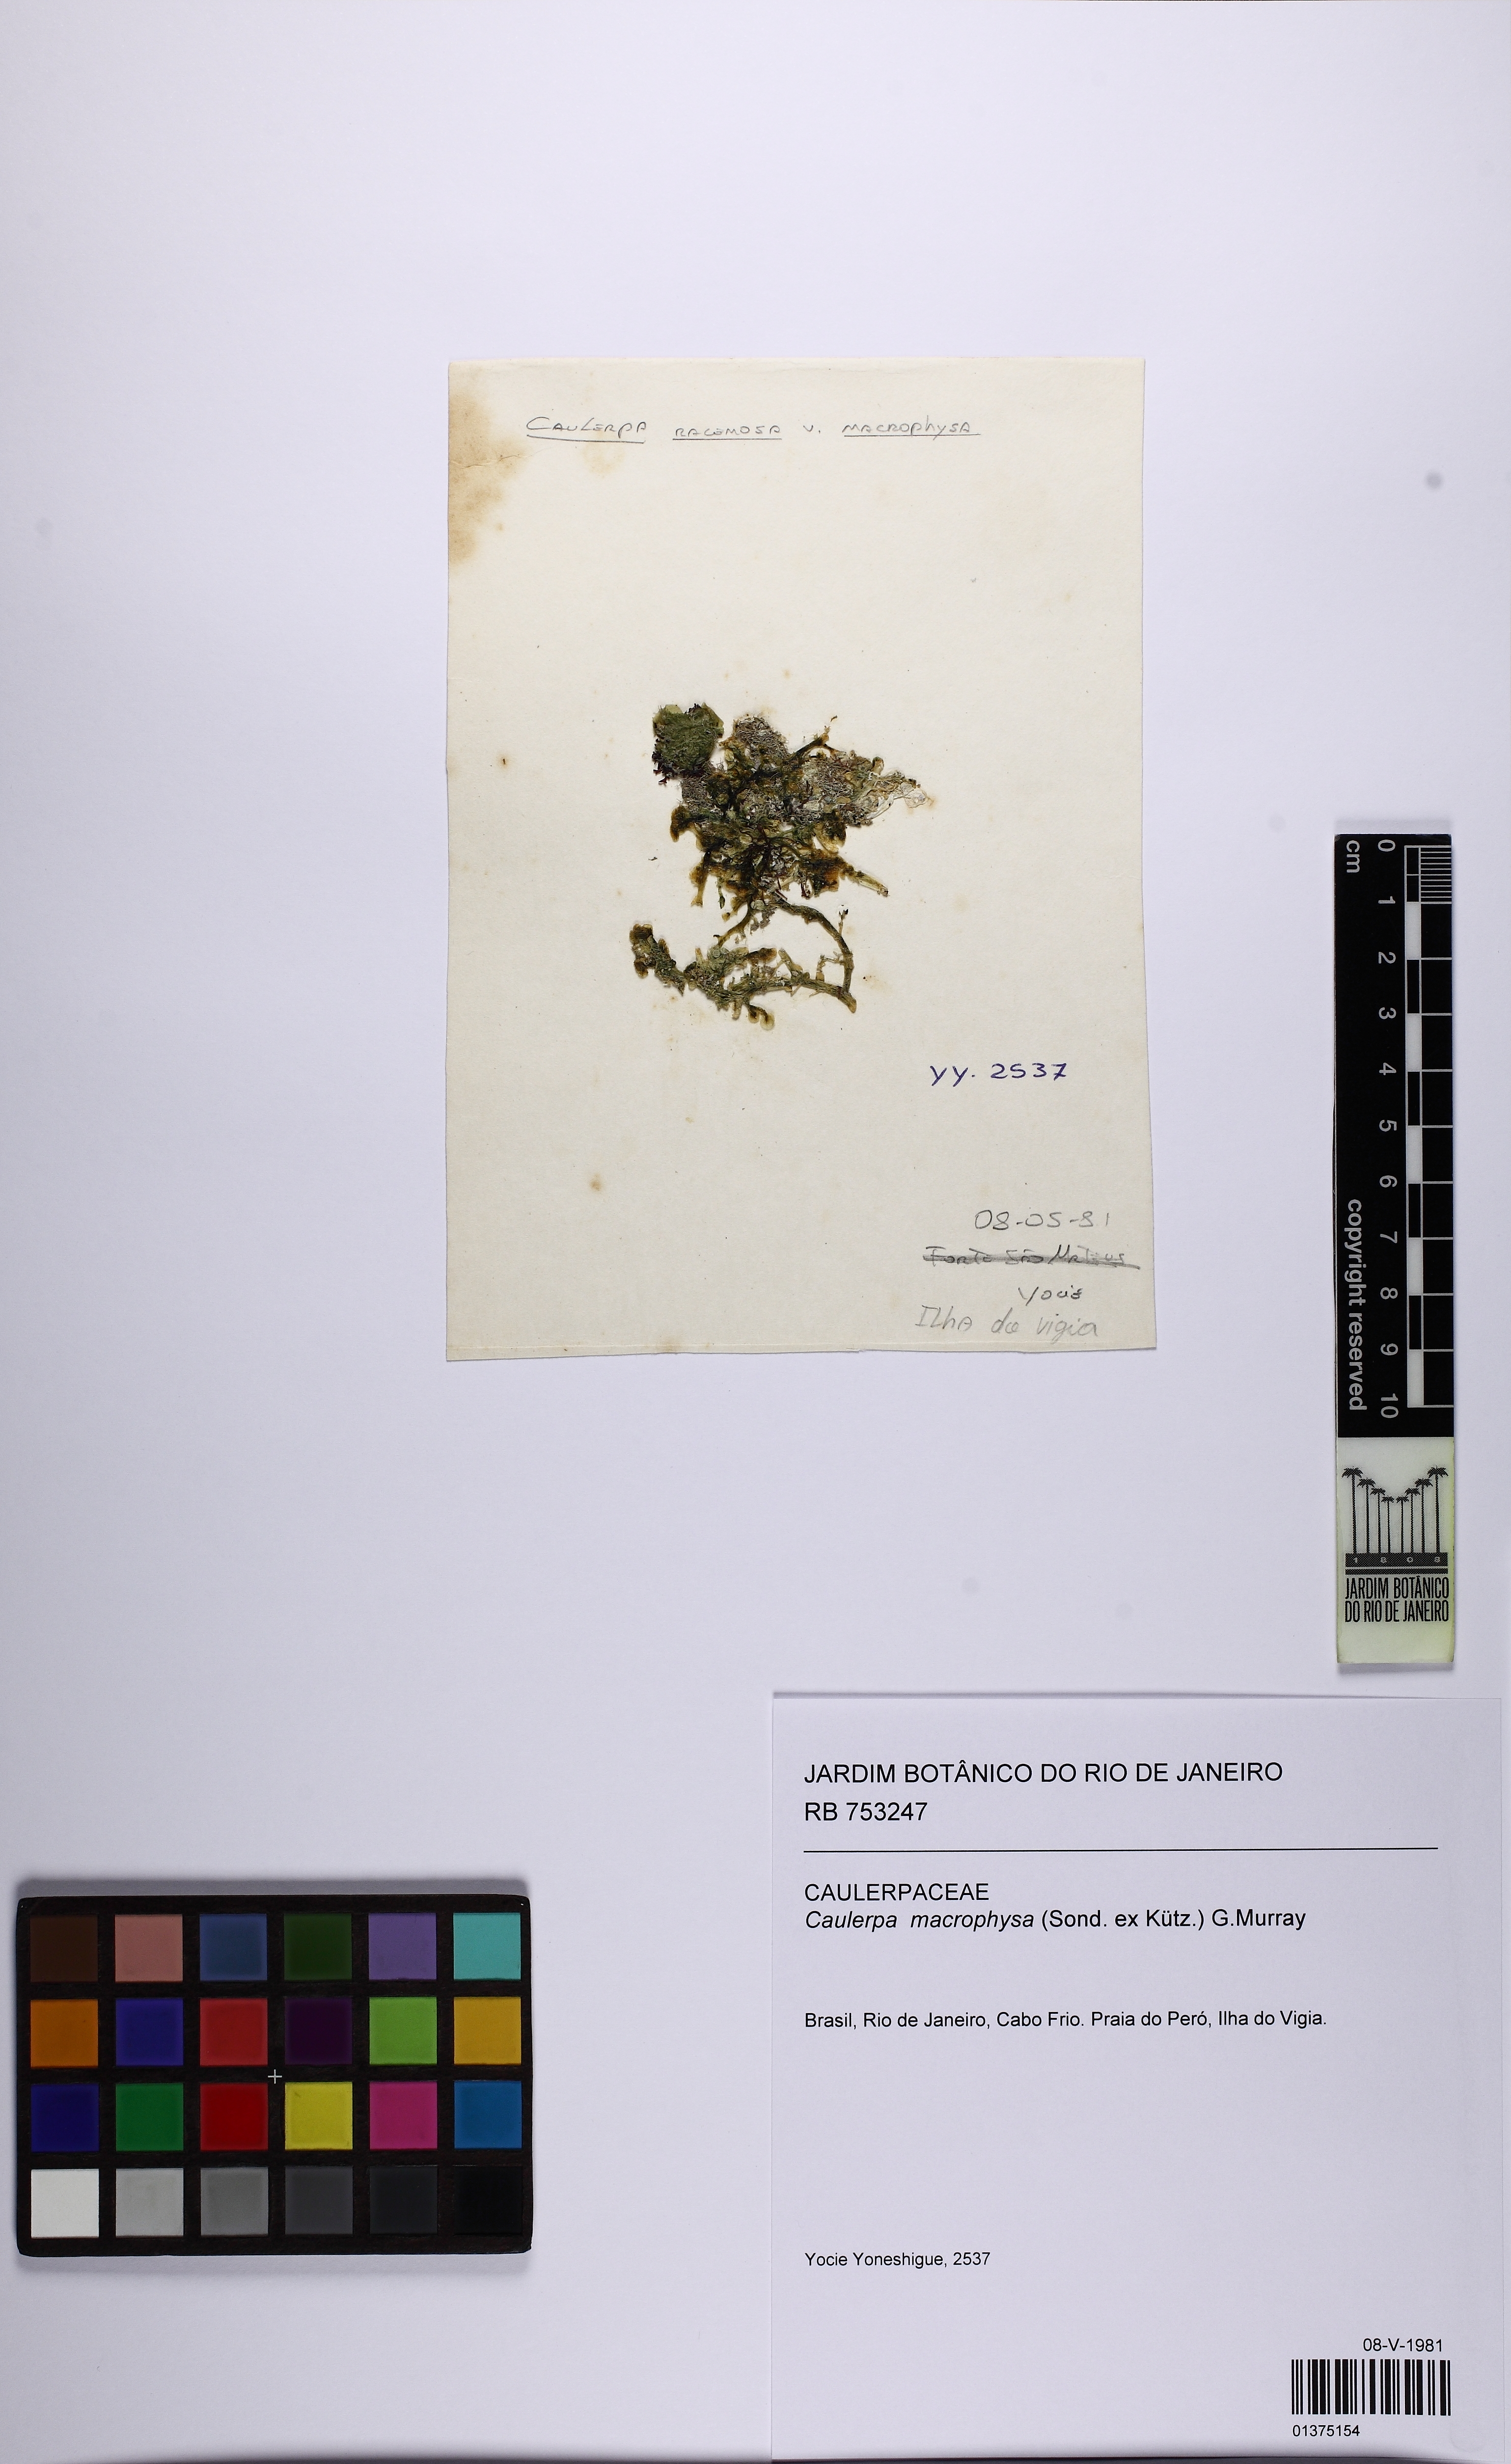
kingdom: Plantae
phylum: Chlorophyta
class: Ulvophyceae
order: Bryopsidales
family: Caulerpaceae
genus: Caulerpa
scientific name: Caulerpa macrophysa
